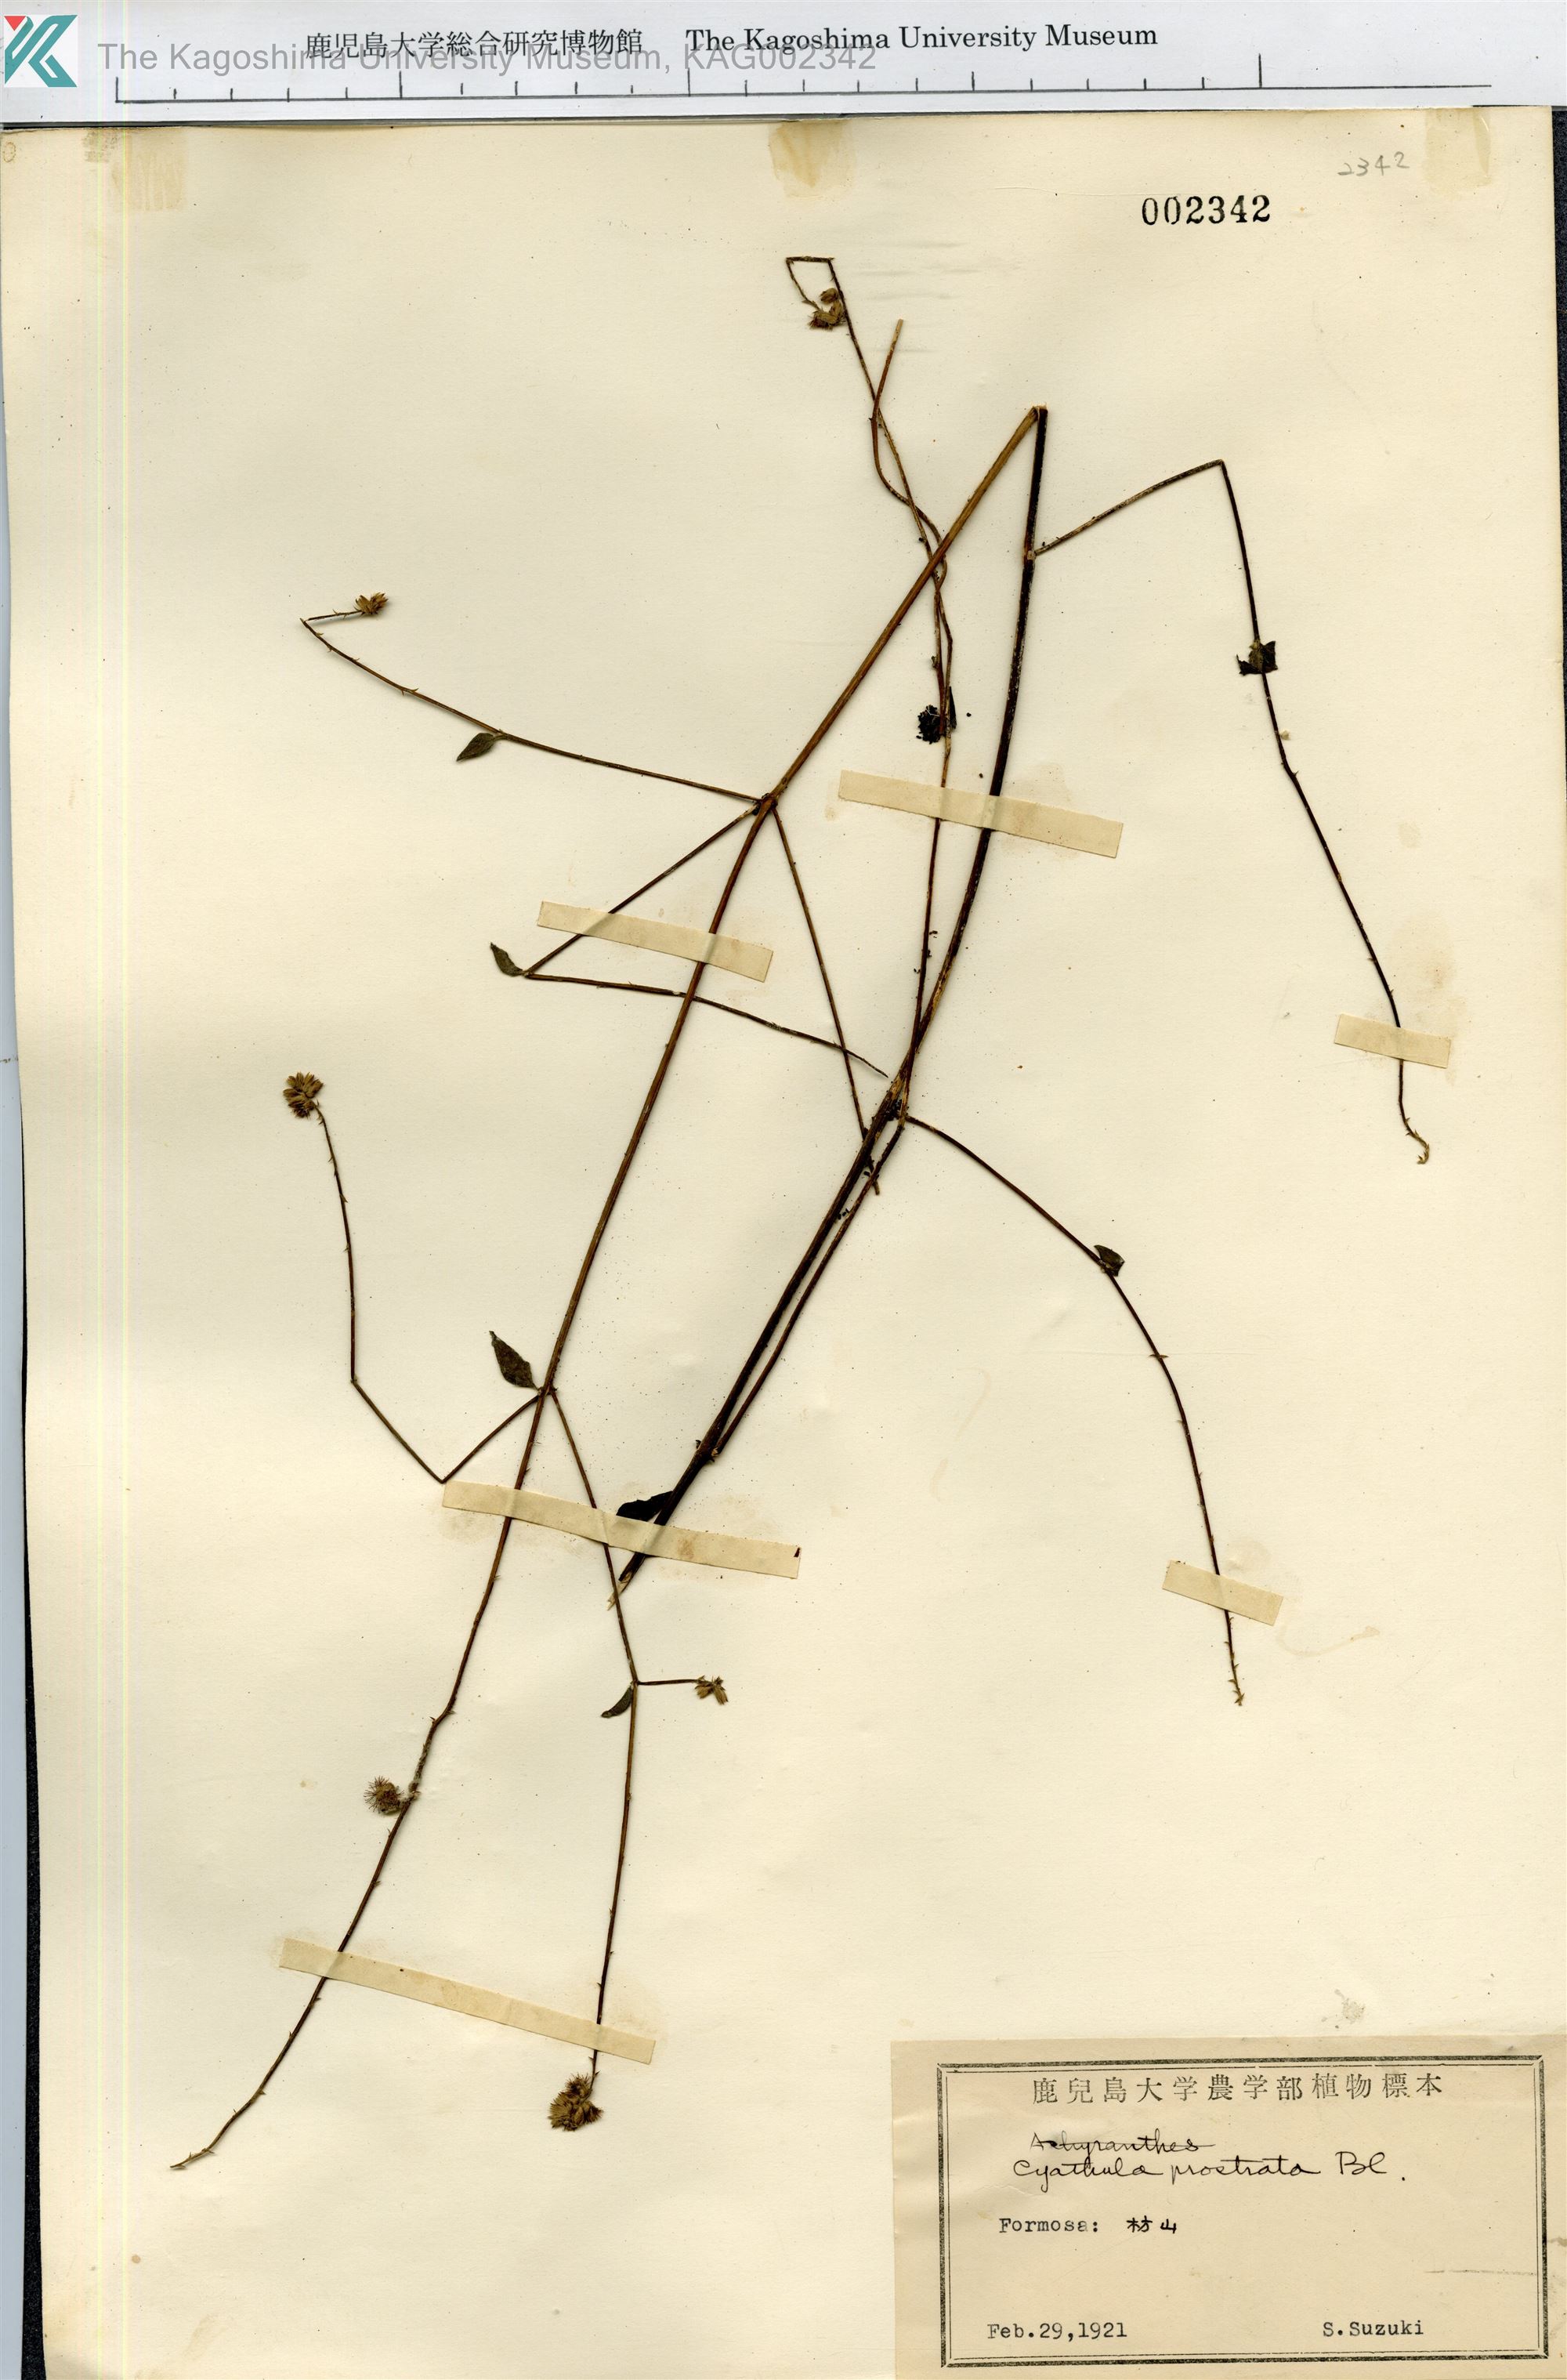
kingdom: Plantae
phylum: Tracheophyta
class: Magnoliopsida
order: Caryophyllales
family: Amaranthaceae
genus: Cyathula
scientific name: Cyathula prostrata
